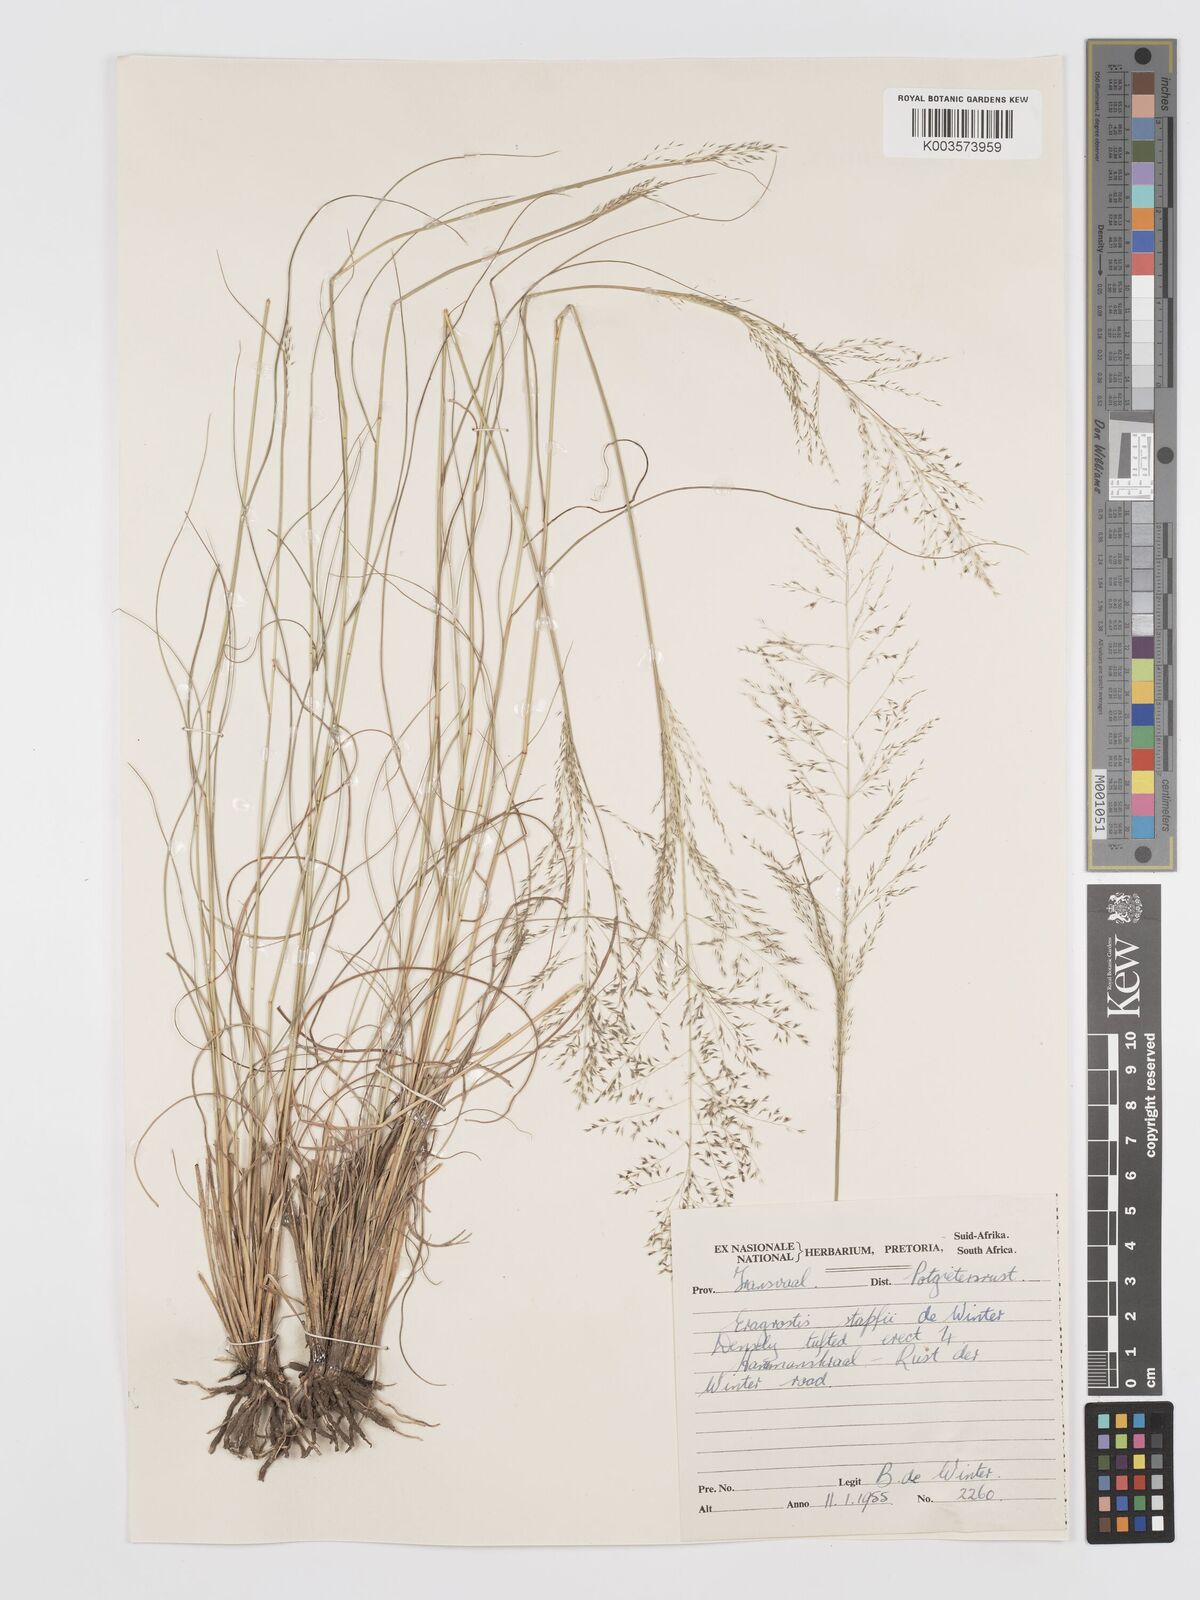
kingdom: Plantae
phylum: Tracheophyta
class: Liliopsida
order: Poales
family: Poaceae
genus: Eragrostis
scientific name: Eragrostis stapfii
